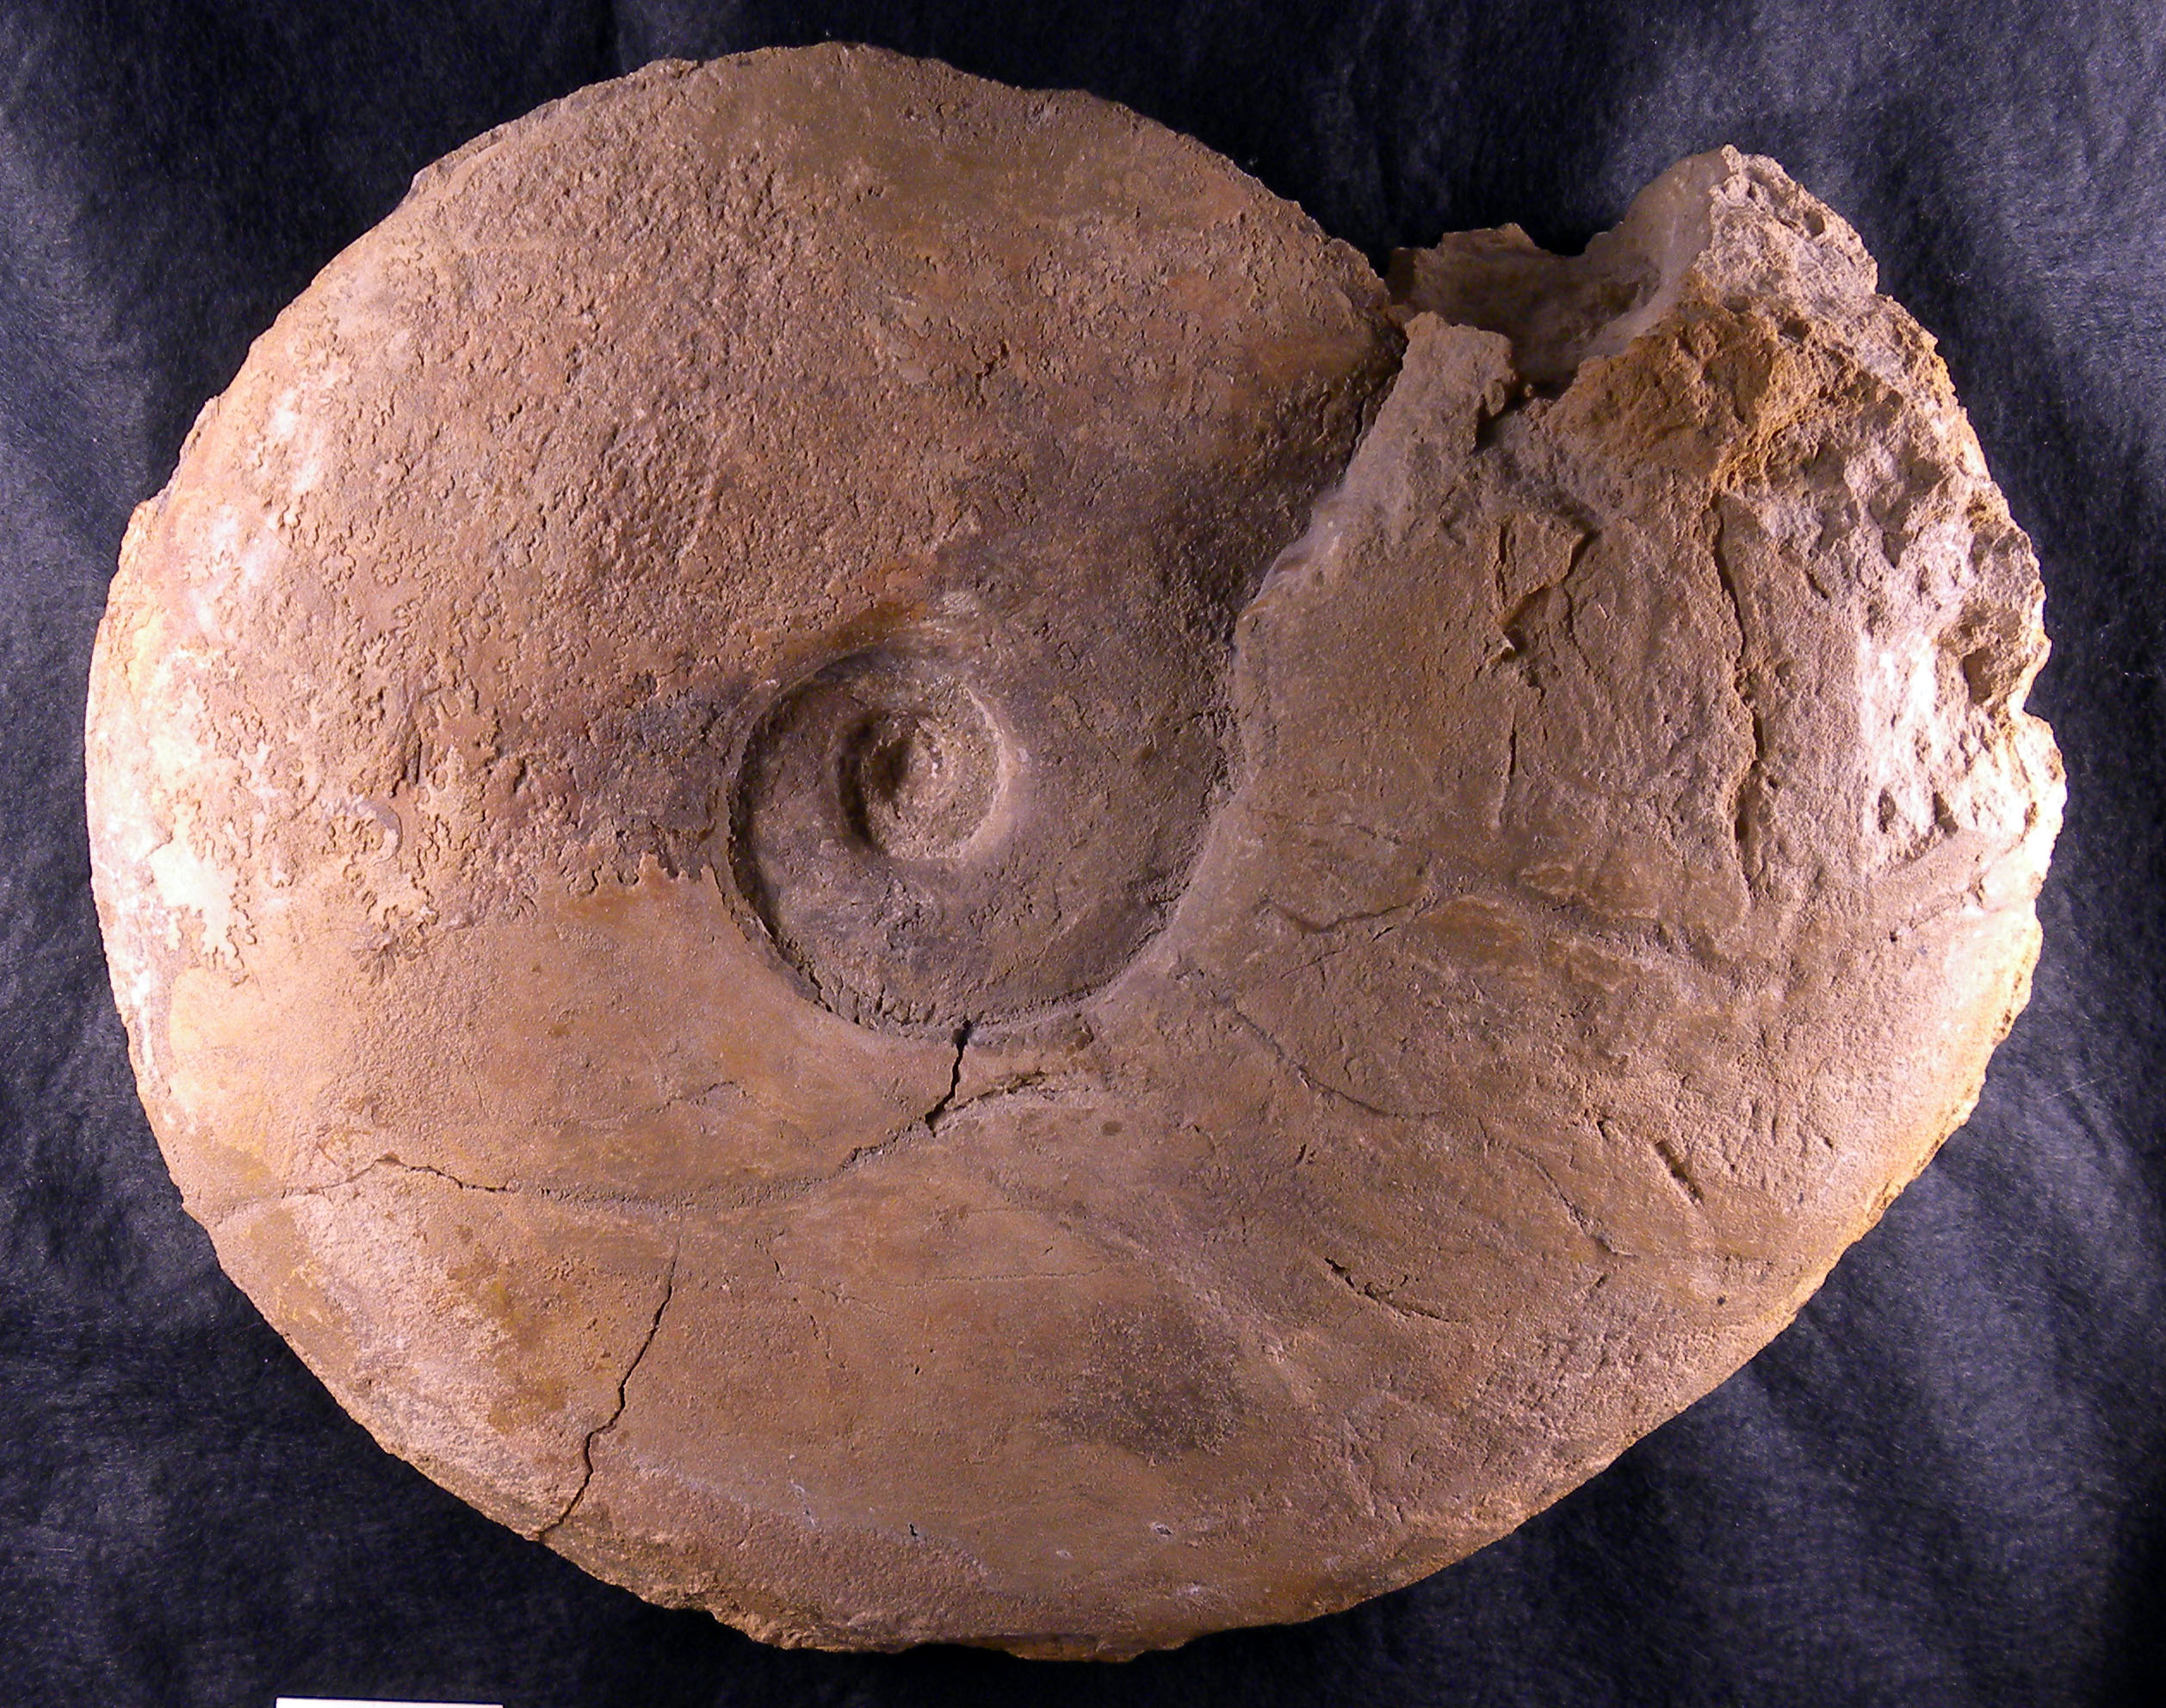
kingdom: Animalia
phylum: Mollusca
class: Cephalopoda
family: Sonniniidae
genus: Dorsetensia
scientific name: Dorsetensia liostraca
